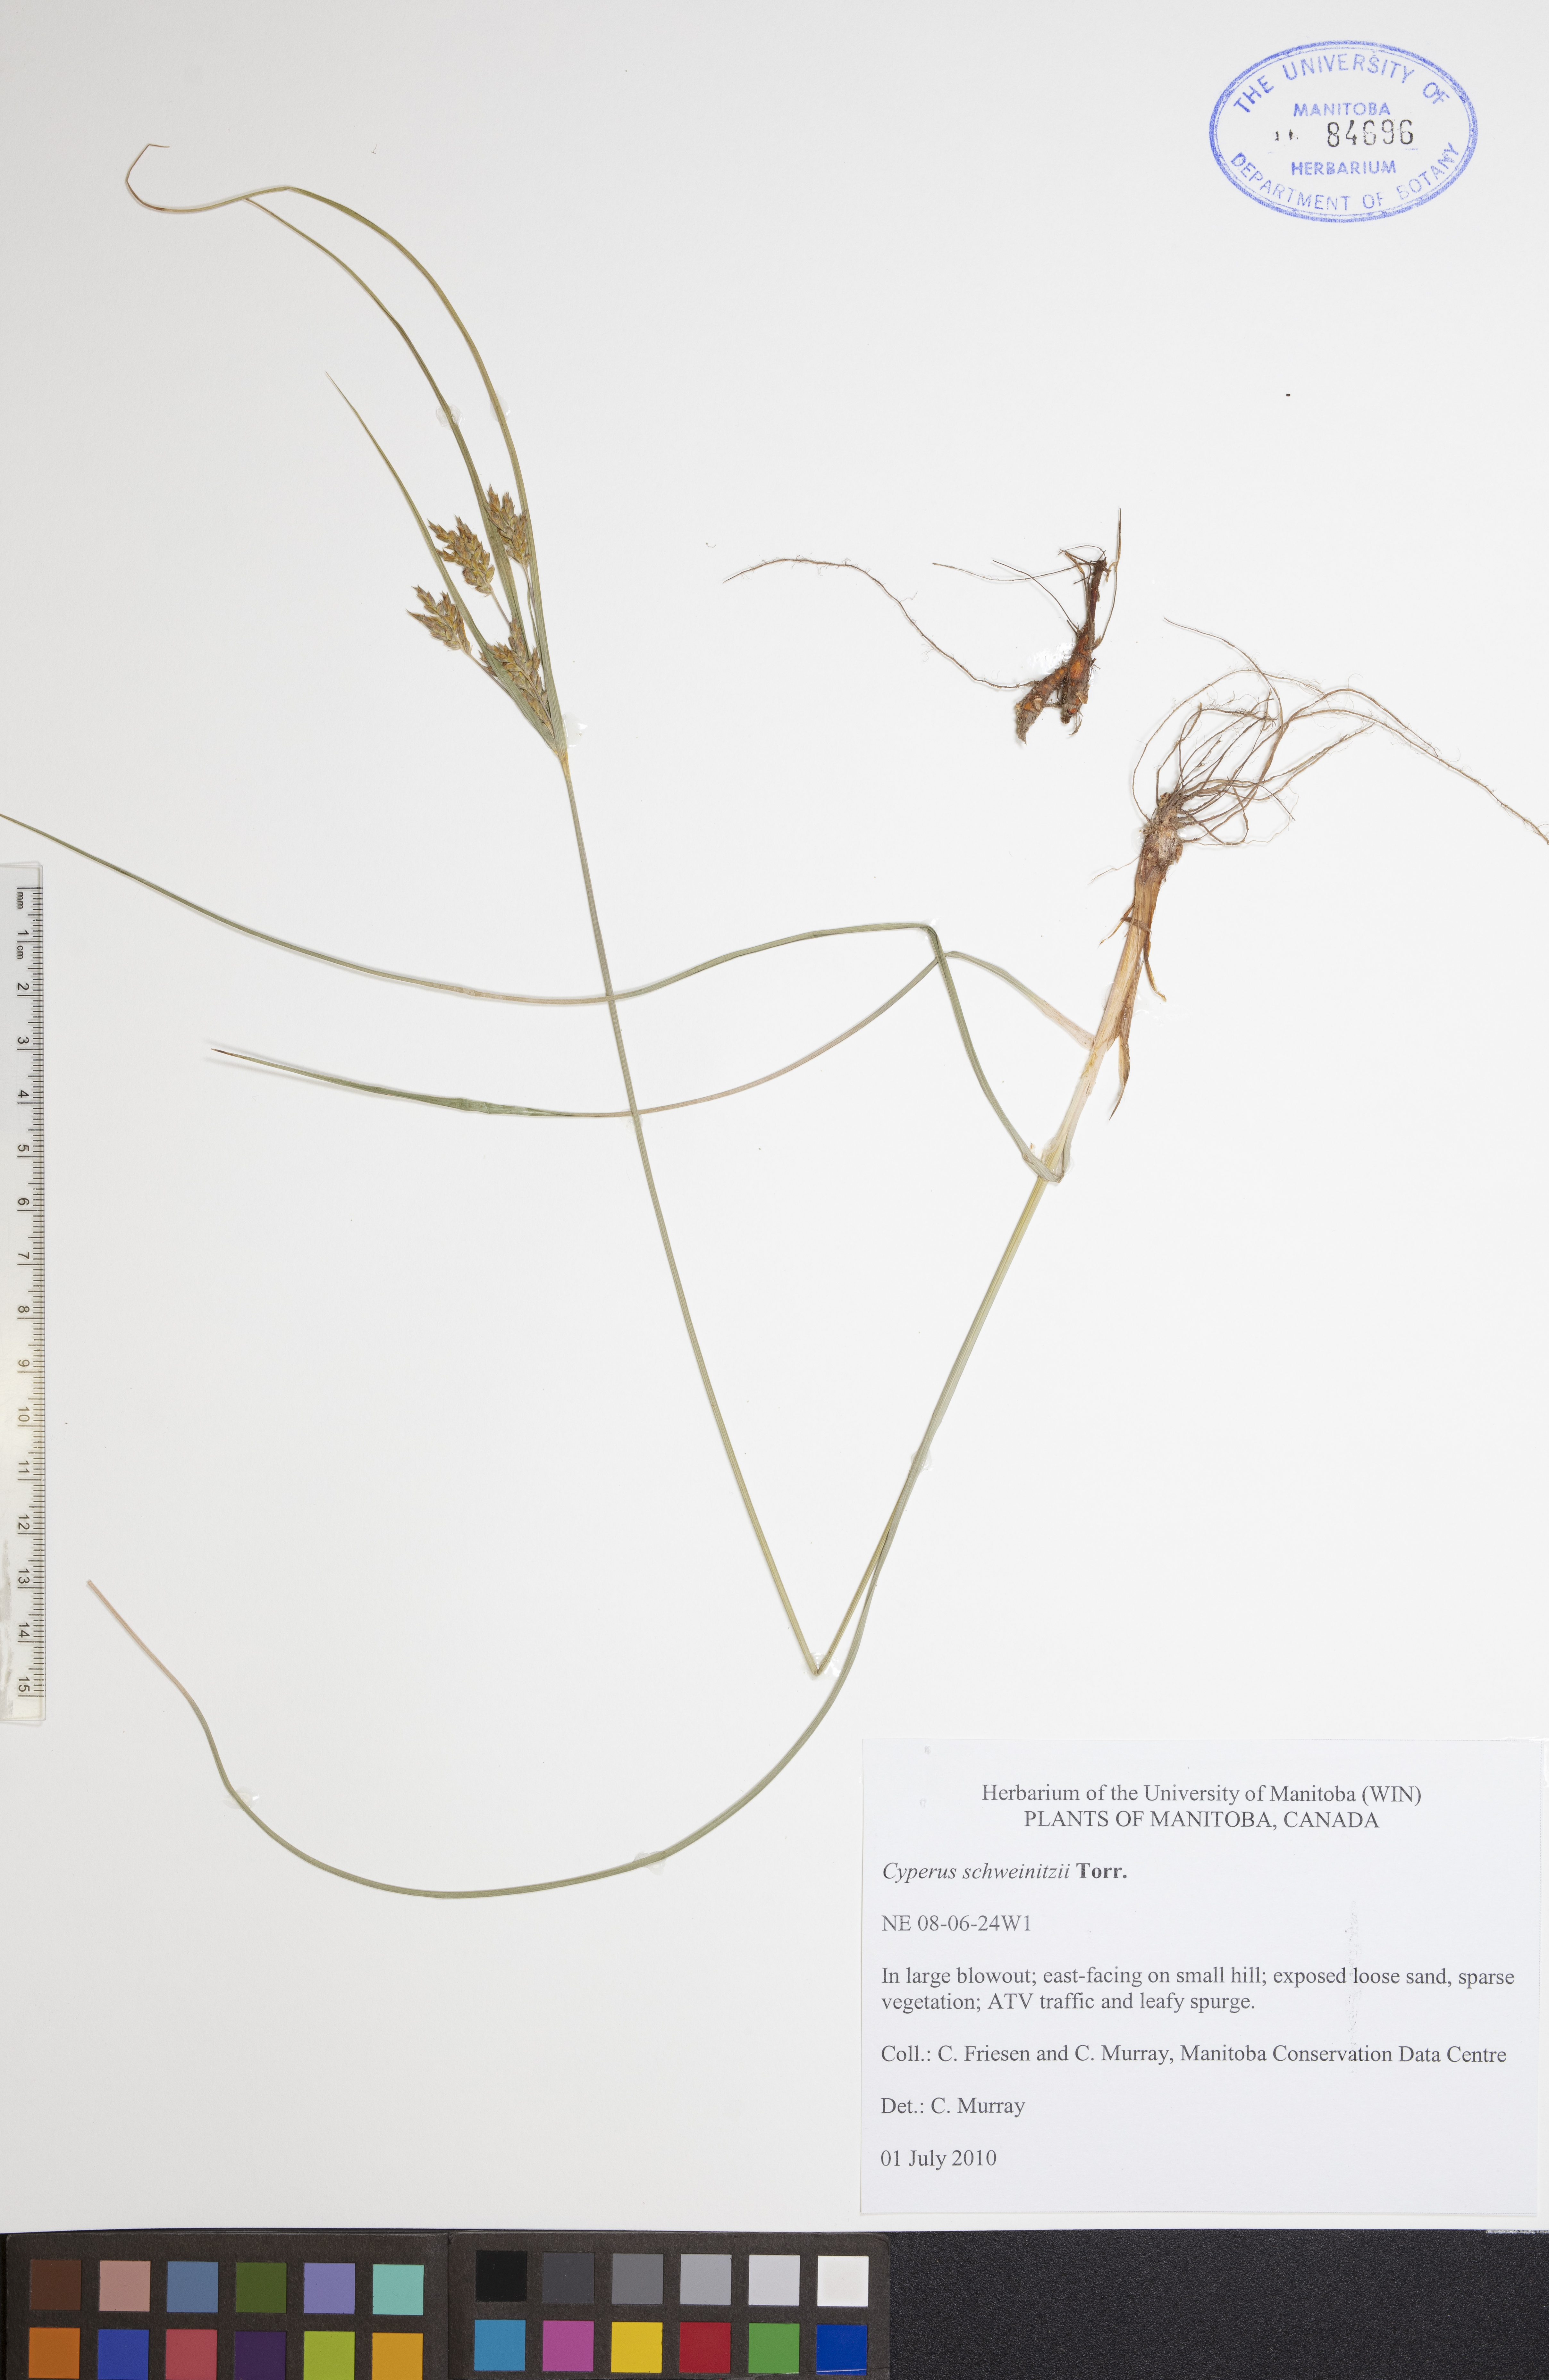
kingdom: Plantae
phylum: Tracheophyta
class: Liliopsida
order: Poales
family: Cyperaceae
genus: Cyperus
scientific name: Cyperus schweinitzii
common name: Schweinitz's cyperus
